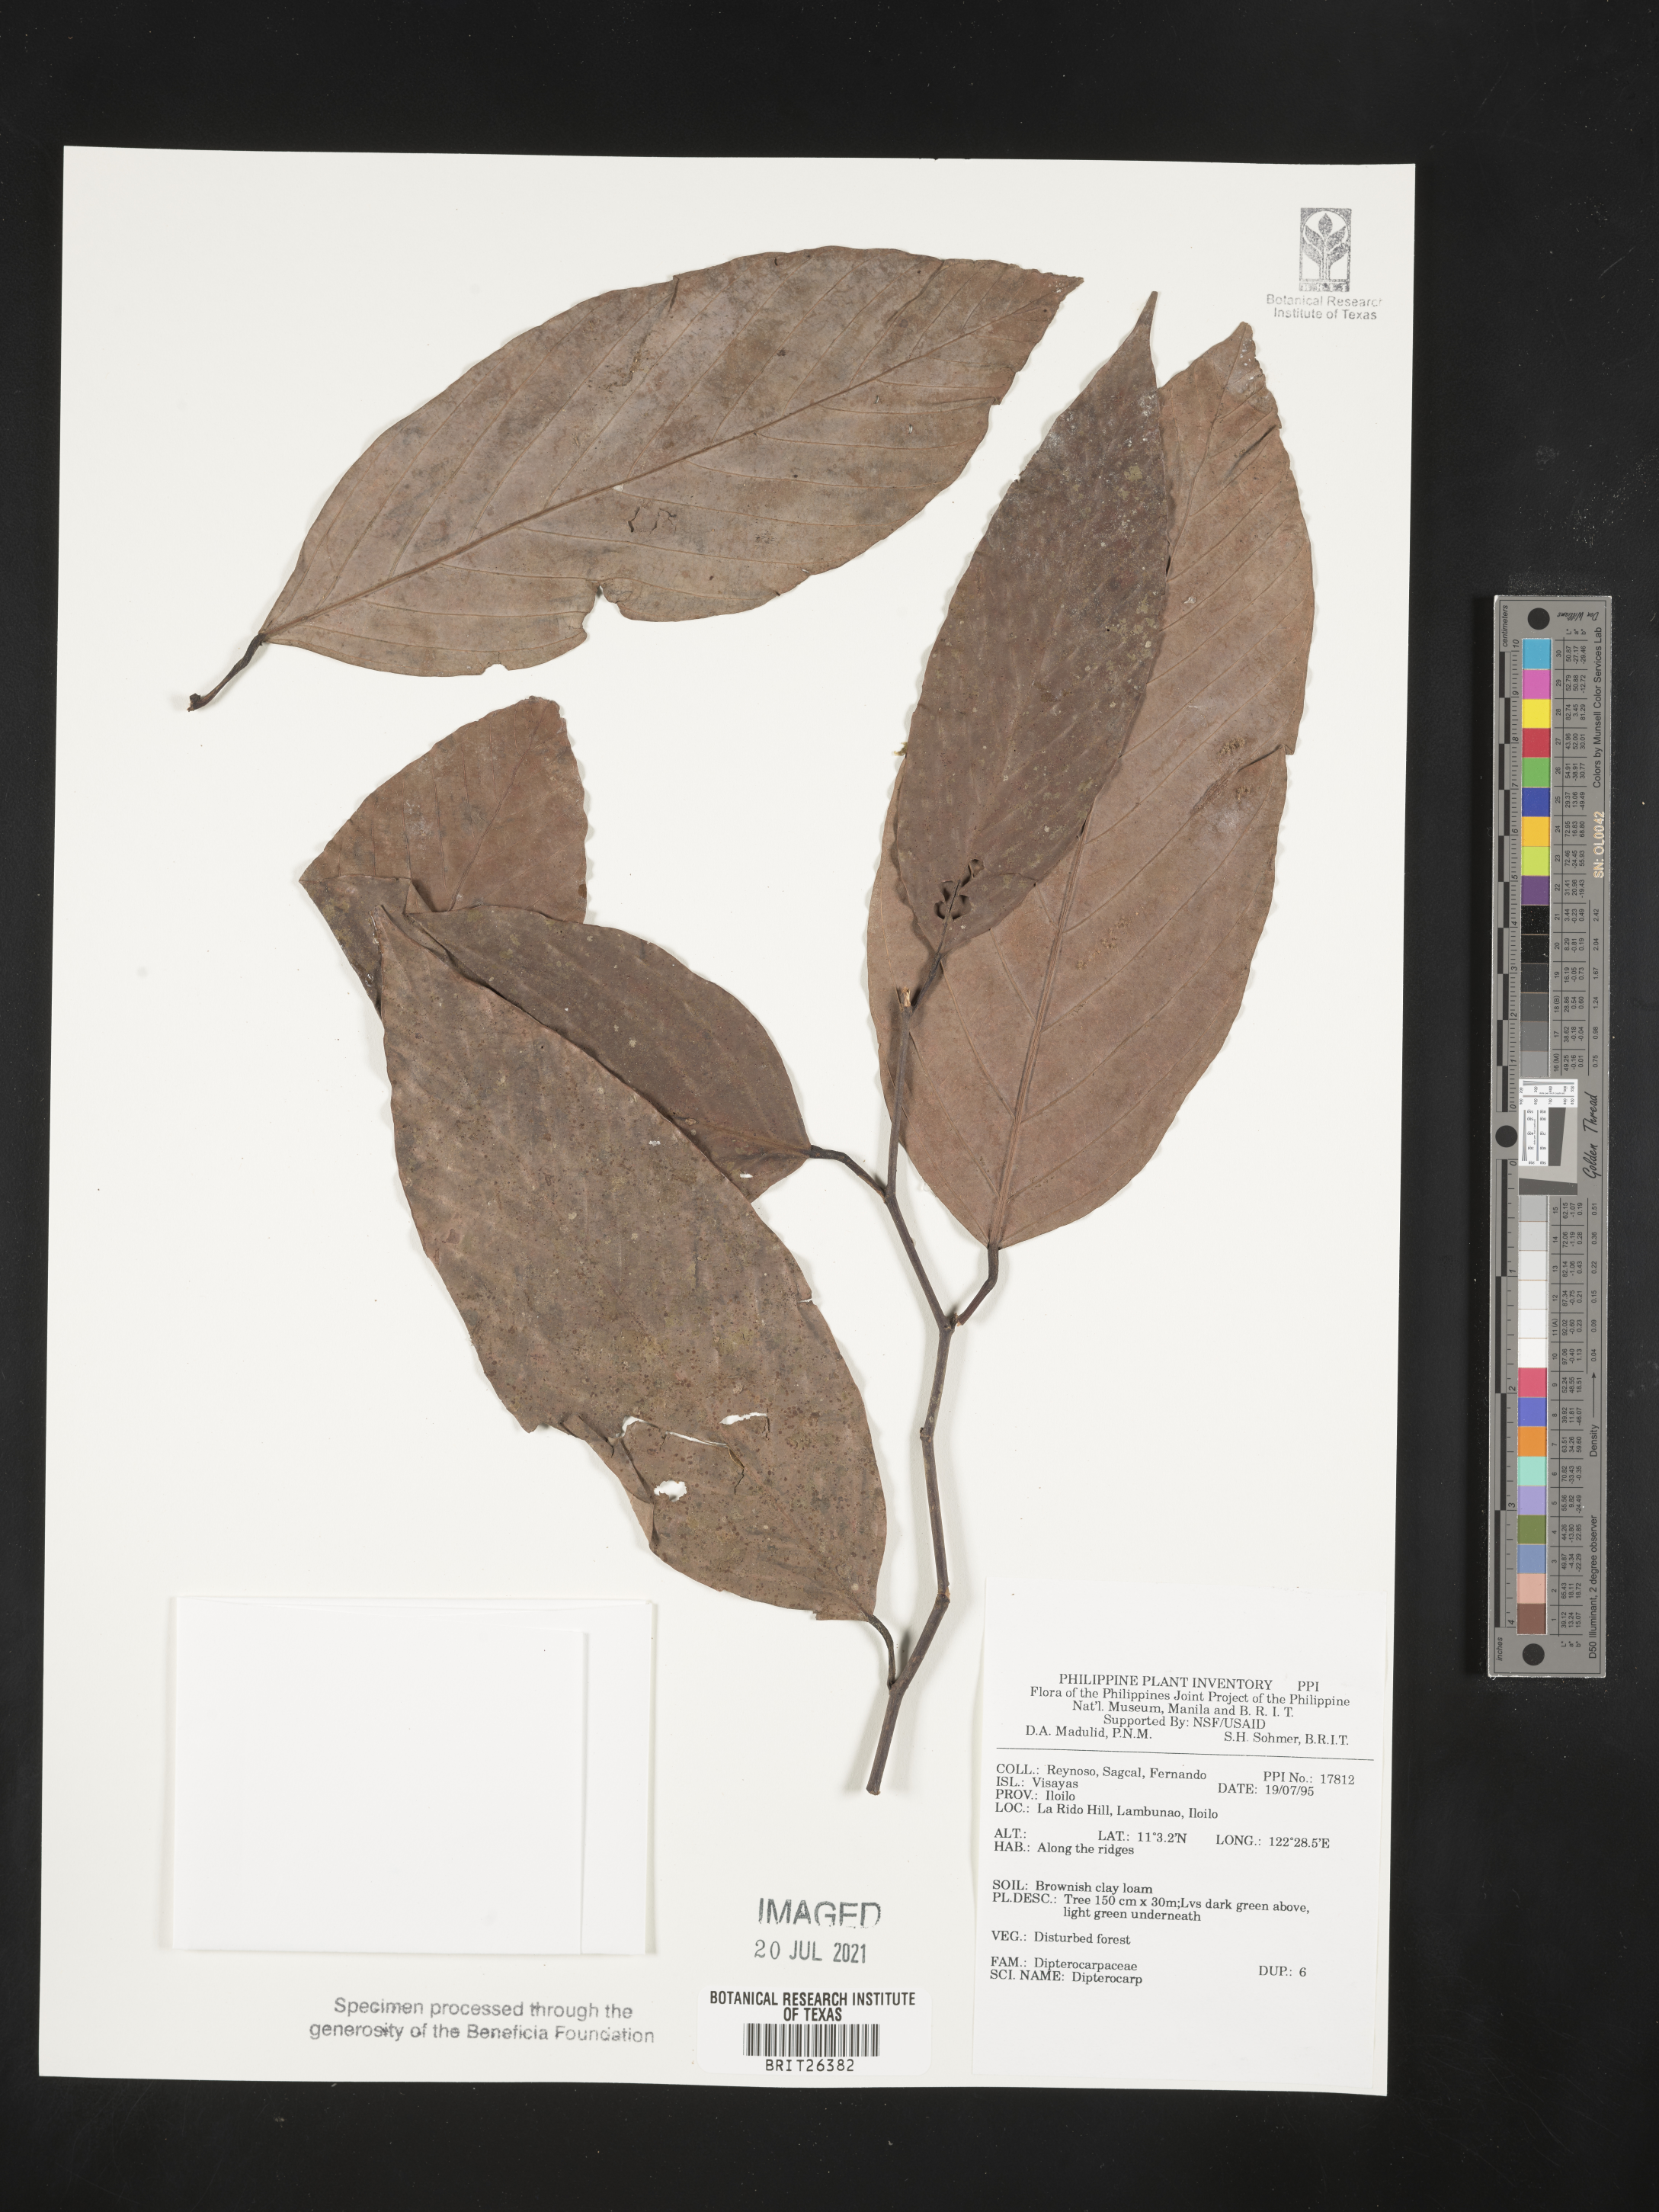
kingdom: Plantae
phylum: Tracheophyta
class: Magnoliopsida
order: Malvales
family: Dipterocarpaceae
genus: Dipterocarpus
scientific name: Dipterocarpus
